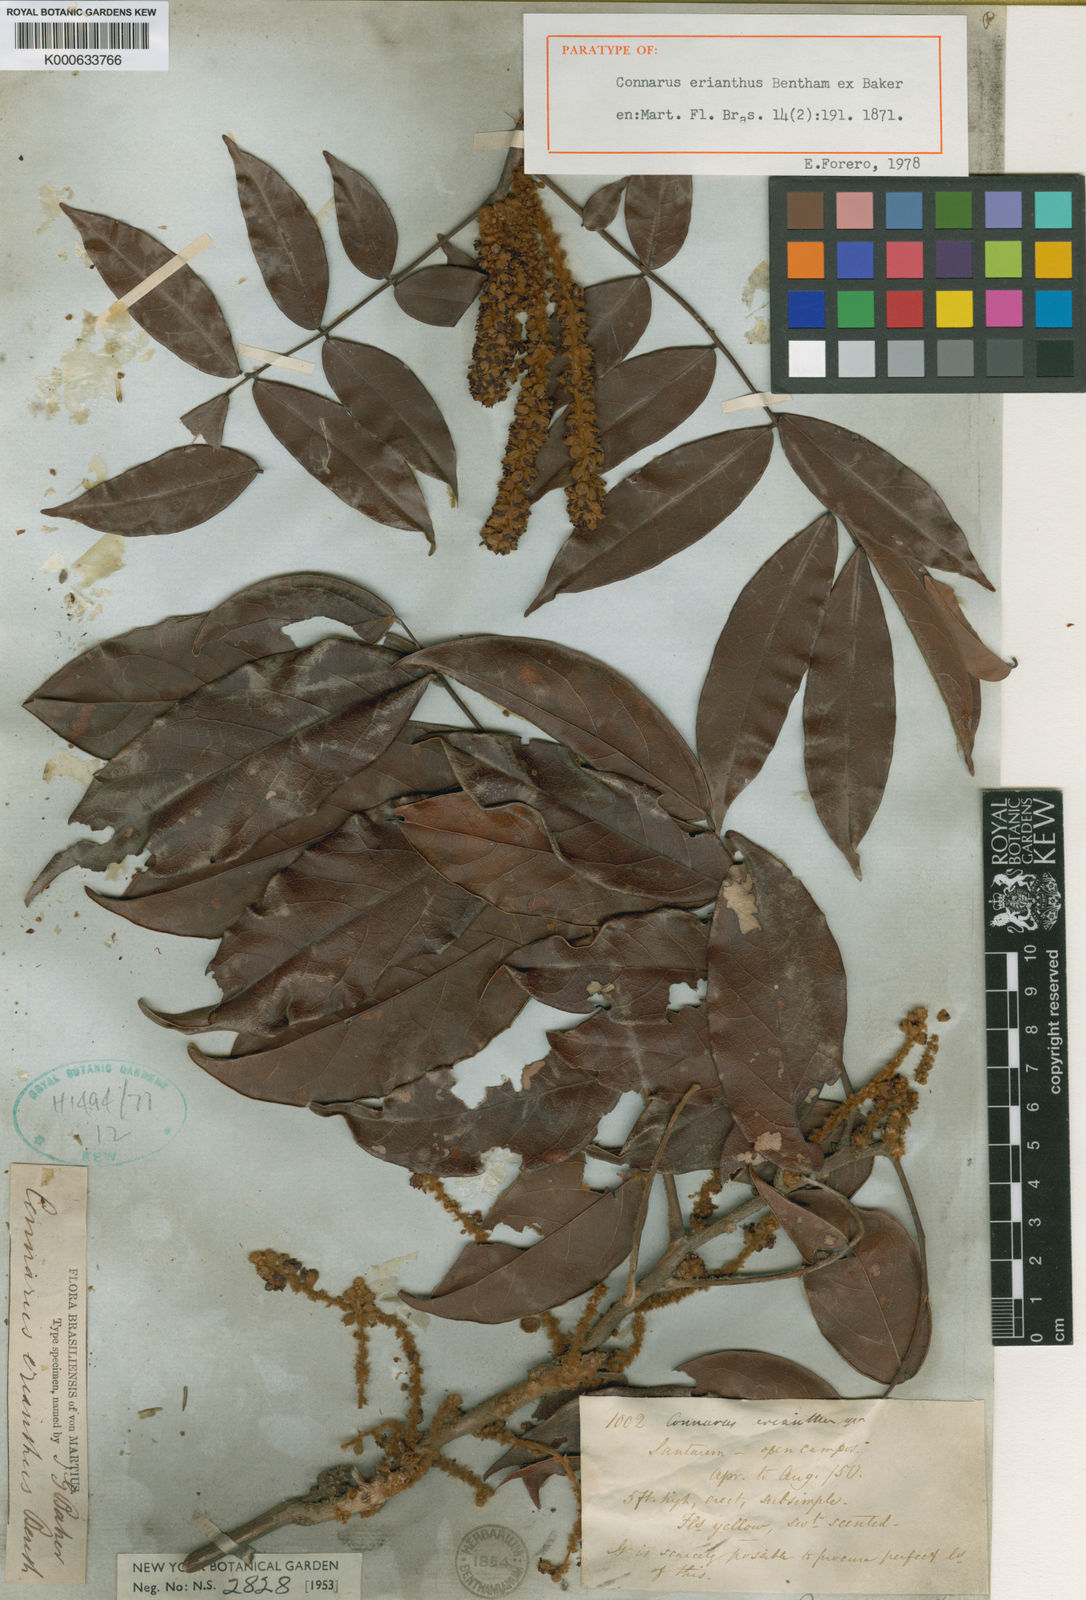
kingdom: Plantae
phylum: Tracheophyta
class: Magnoliopsida
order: Oxalidales
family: Connaraceae
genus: Connarus
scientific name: Connarus
